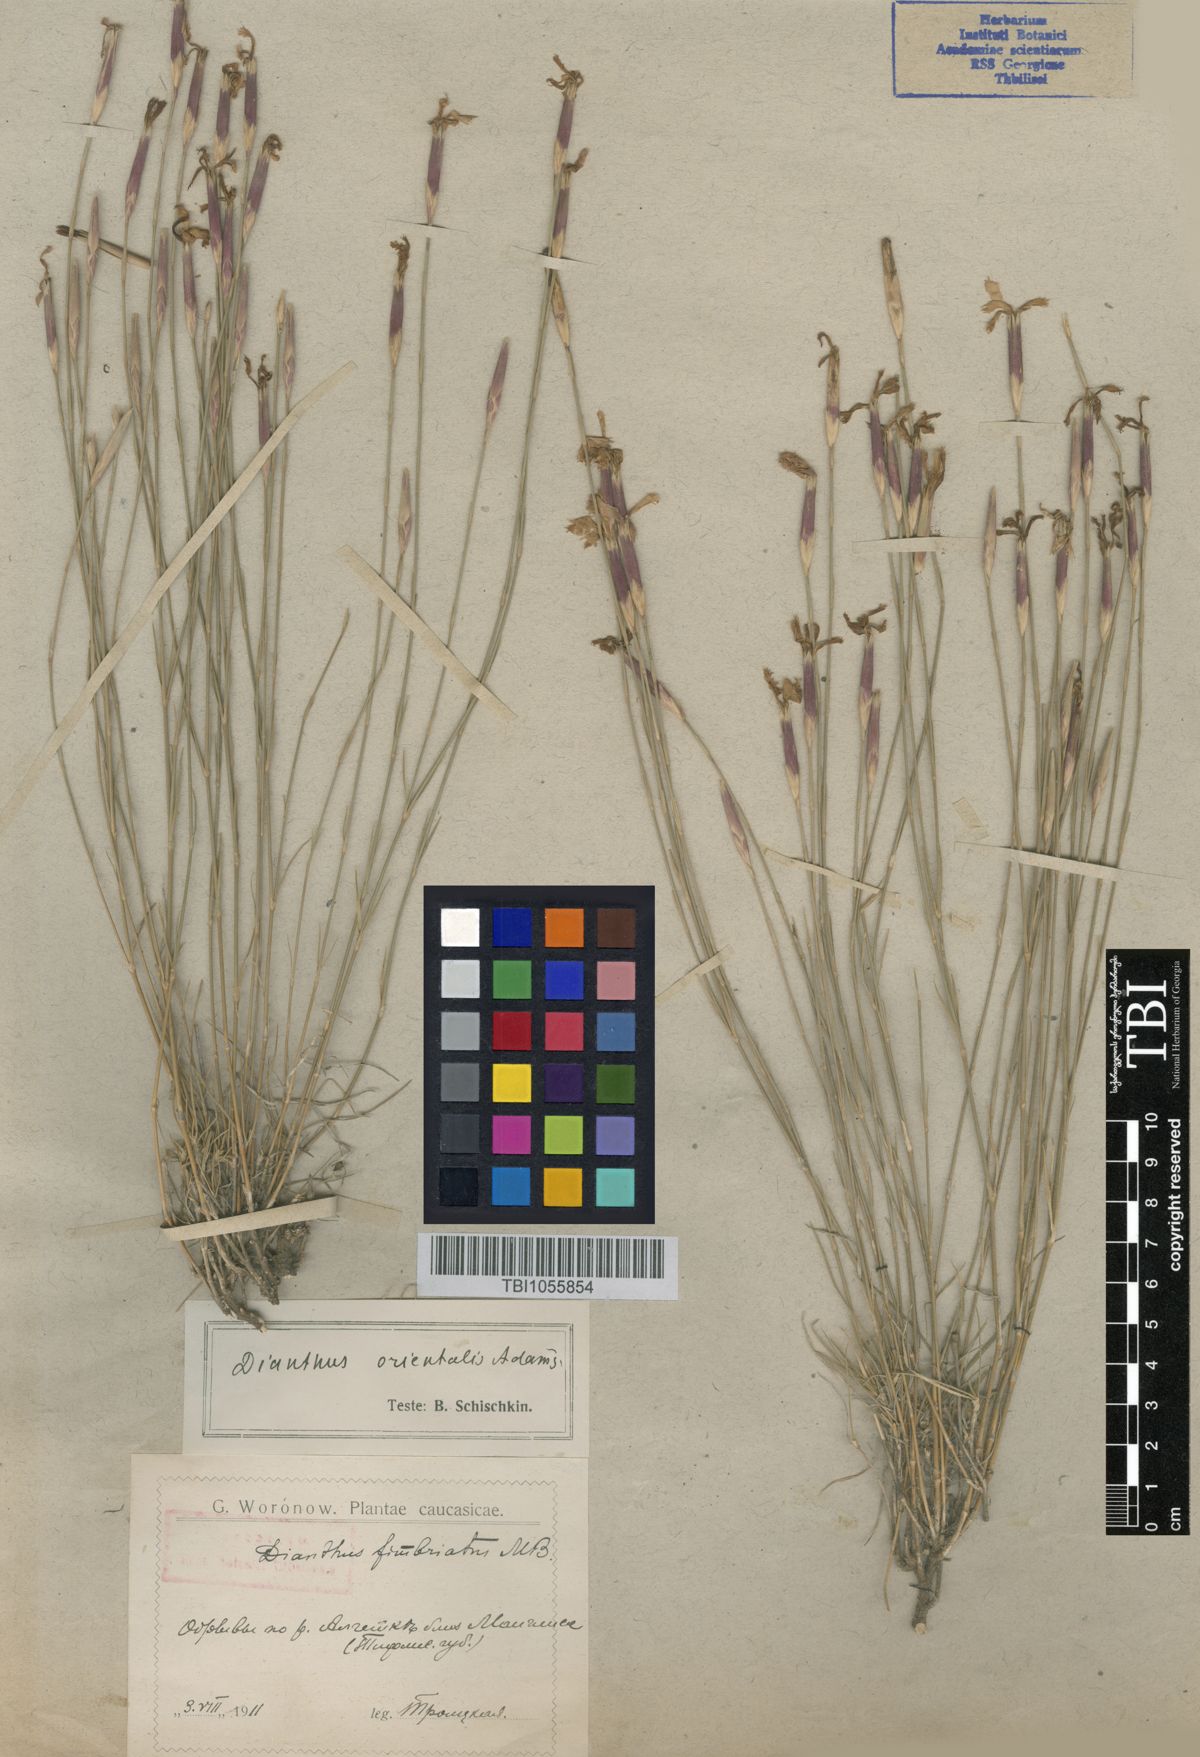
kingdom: Plantae
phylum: Tracheophyta
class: Magnoliopsida
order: Caryophyllales
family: Caryophyllaceae
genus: Dianthus
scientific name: Dianthus orientalis
